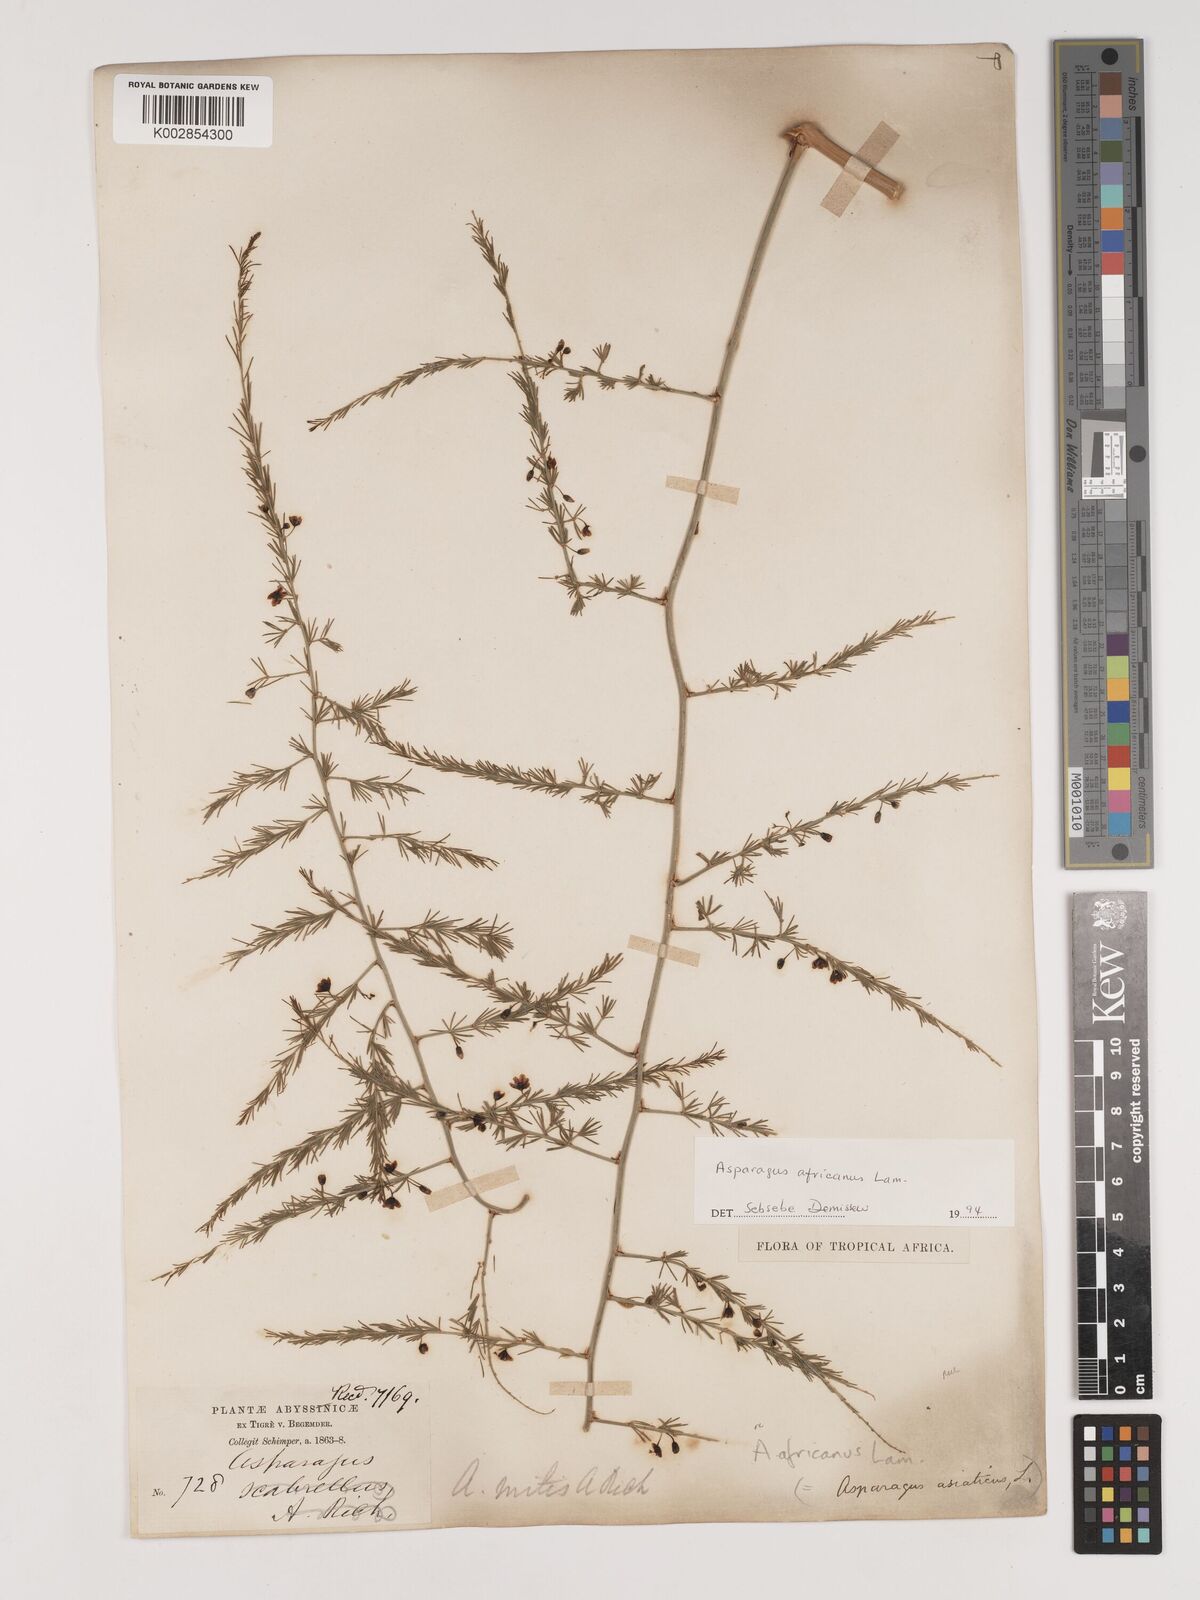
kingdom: Plantae
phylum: Tracheophyta
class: Liliopsida
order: Asparagales
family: Asparagaceae
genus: Asparagus
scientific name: Asparagus africanus
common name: Asparagus-fern
